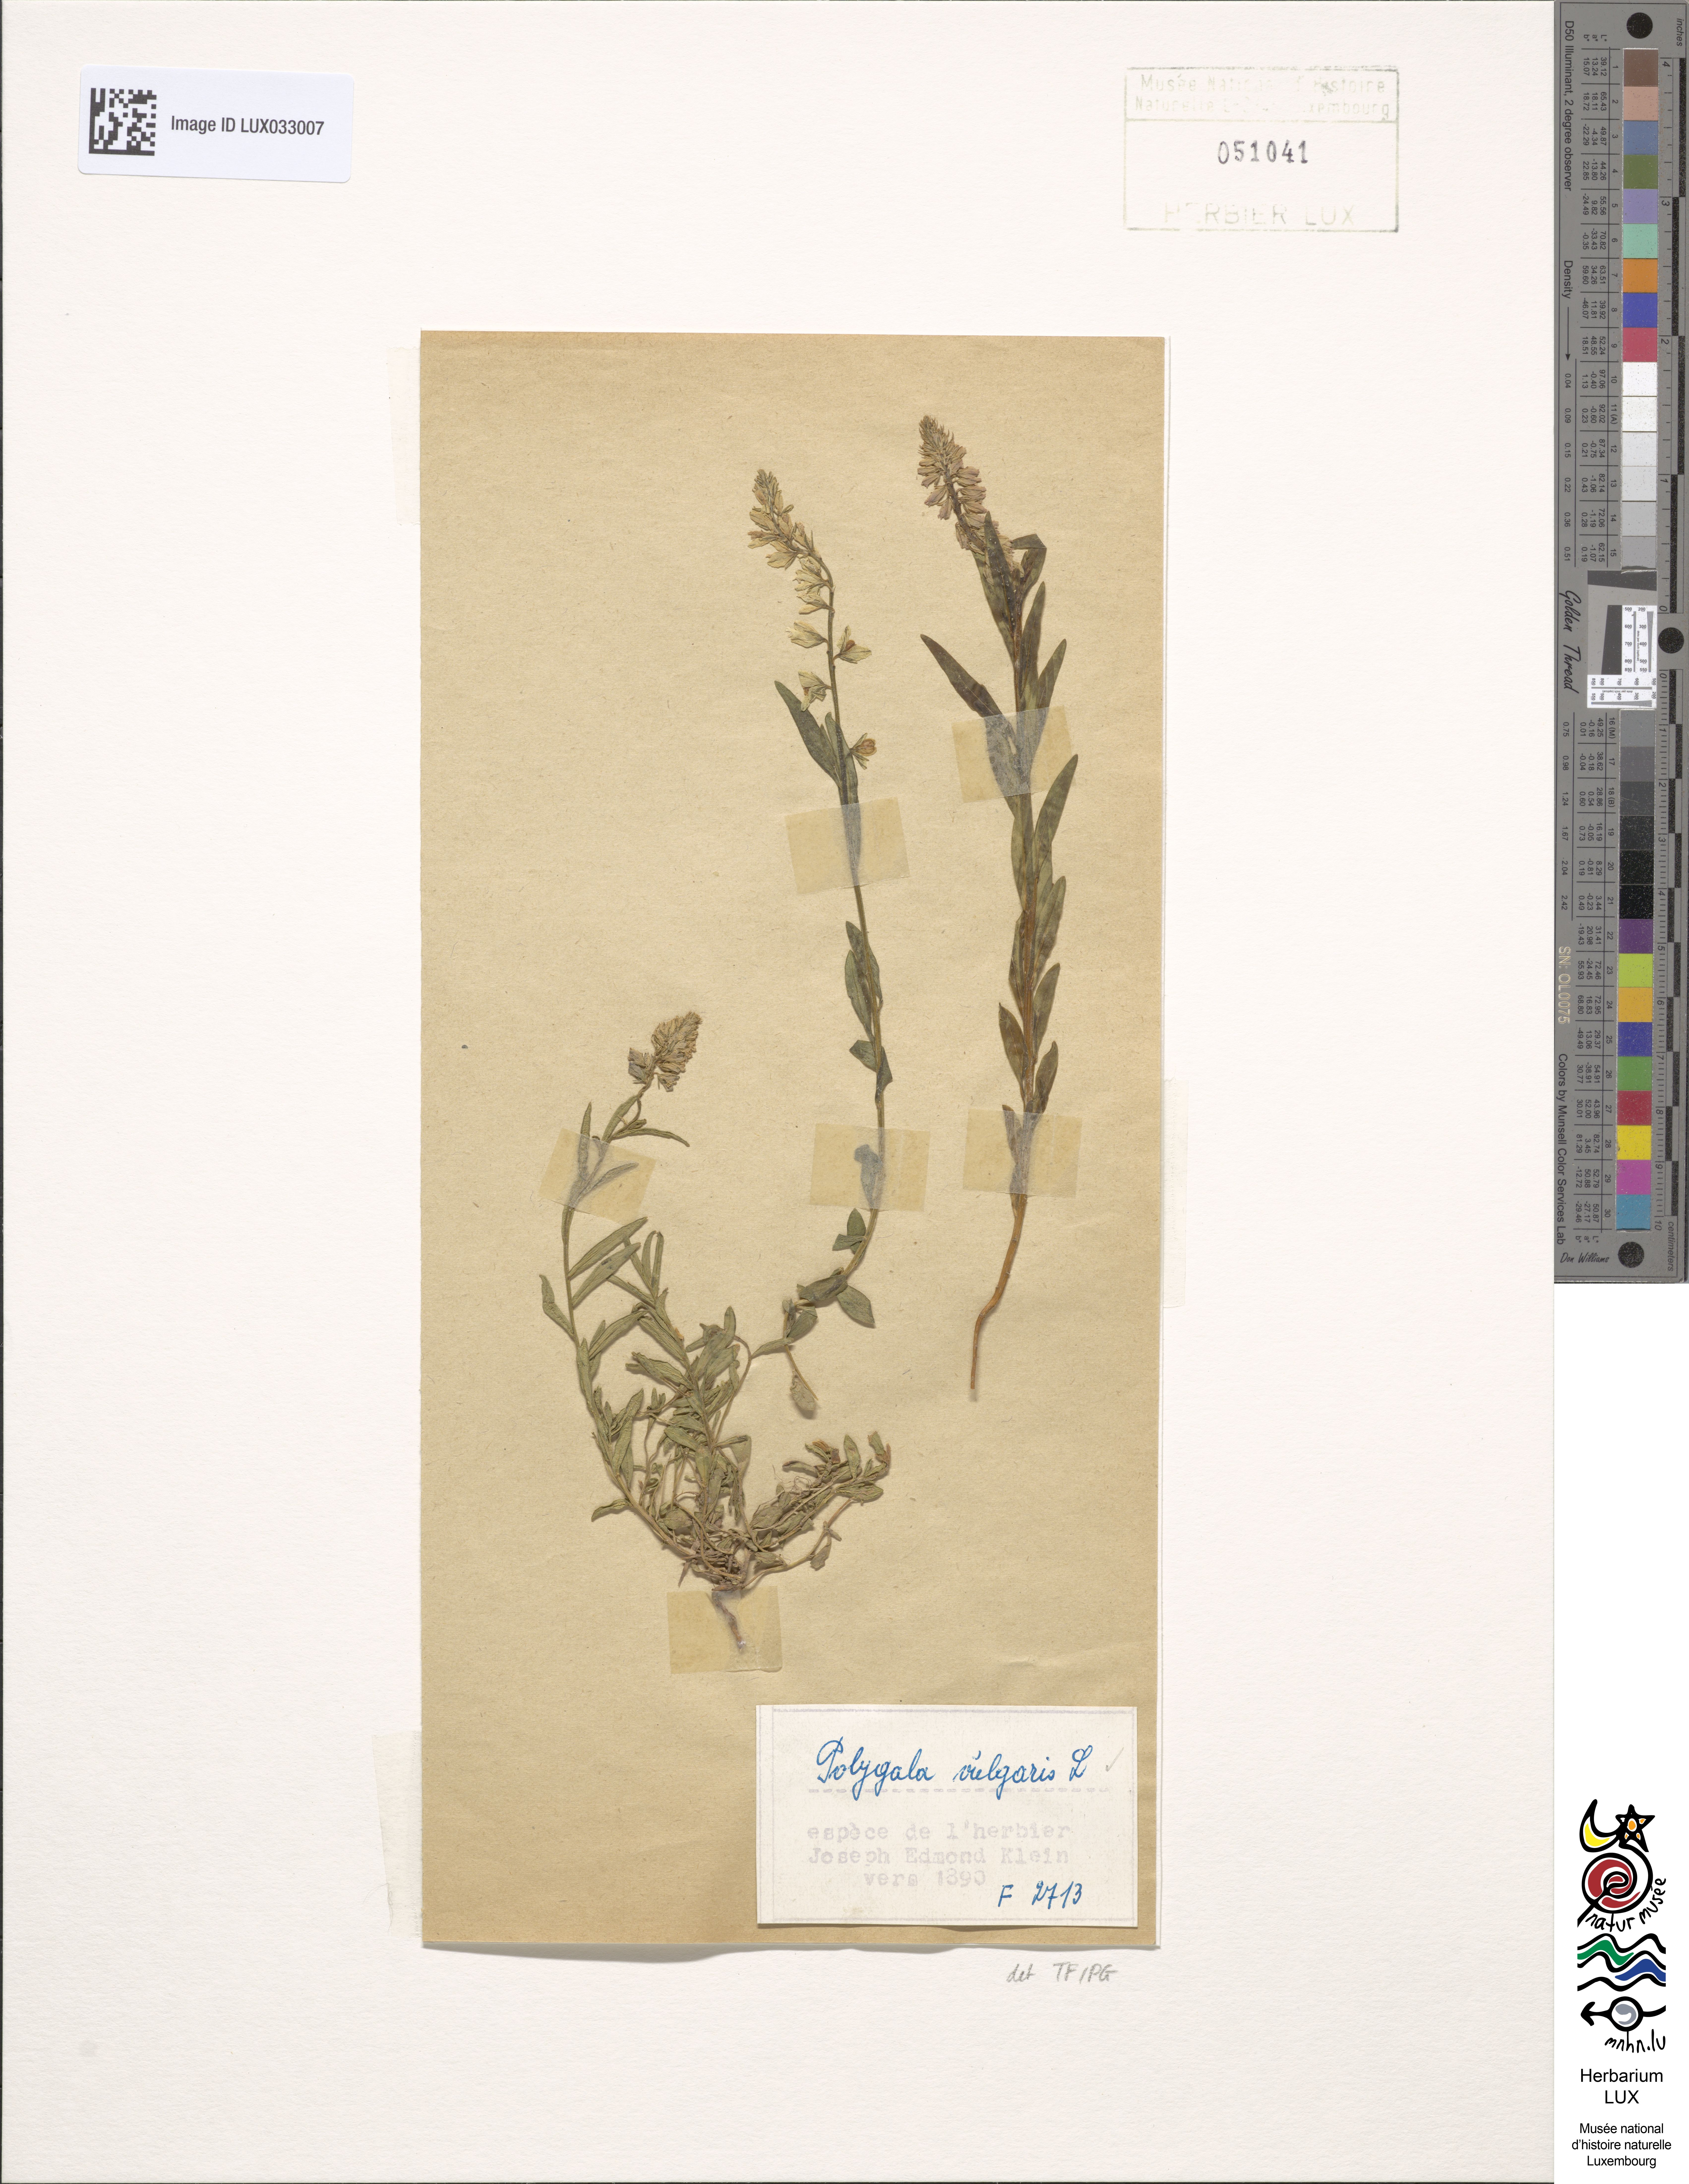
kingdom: Plantae
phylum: Tracheophyta
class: Magnoliopsida
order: Fabales
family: Polygalaceae
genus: Polygala
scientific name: Polygala vulgaris
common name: Common milkwort
